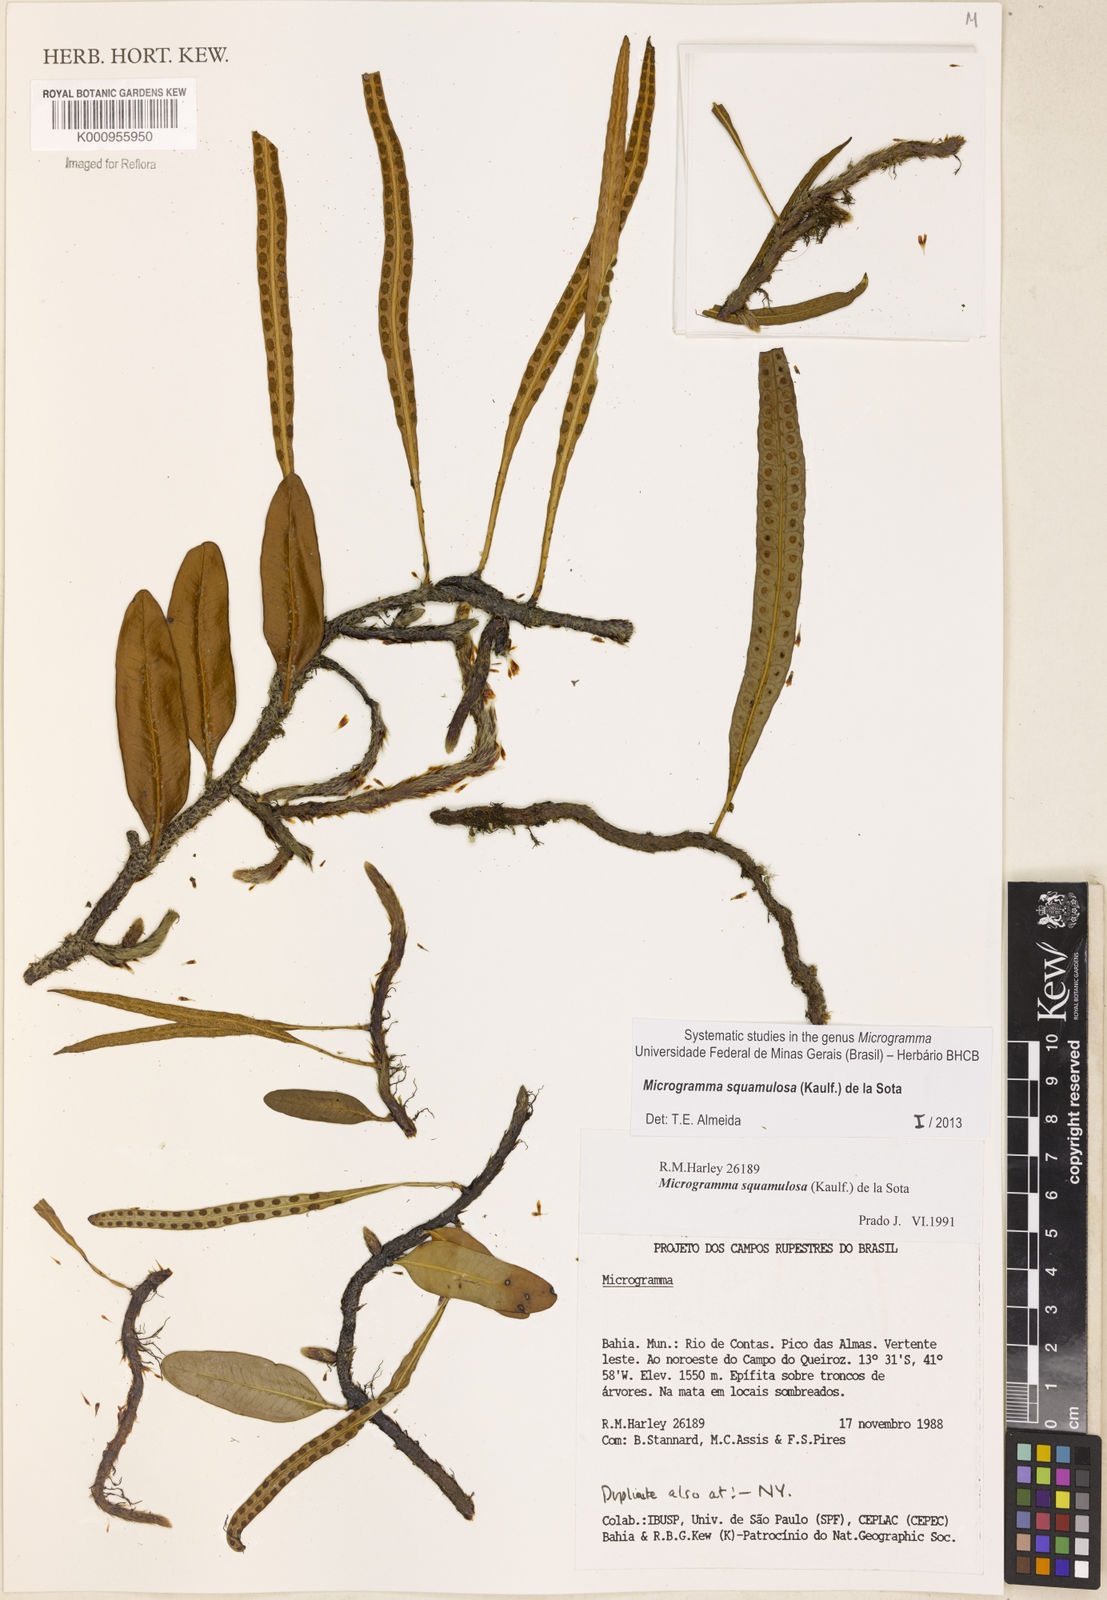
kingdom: Plantae
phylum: Tracheophyta
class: Polypodiopsida
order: Polypodiales
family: Polypodiaceae
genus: Microgramma
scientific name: Microgramma squamulosa
